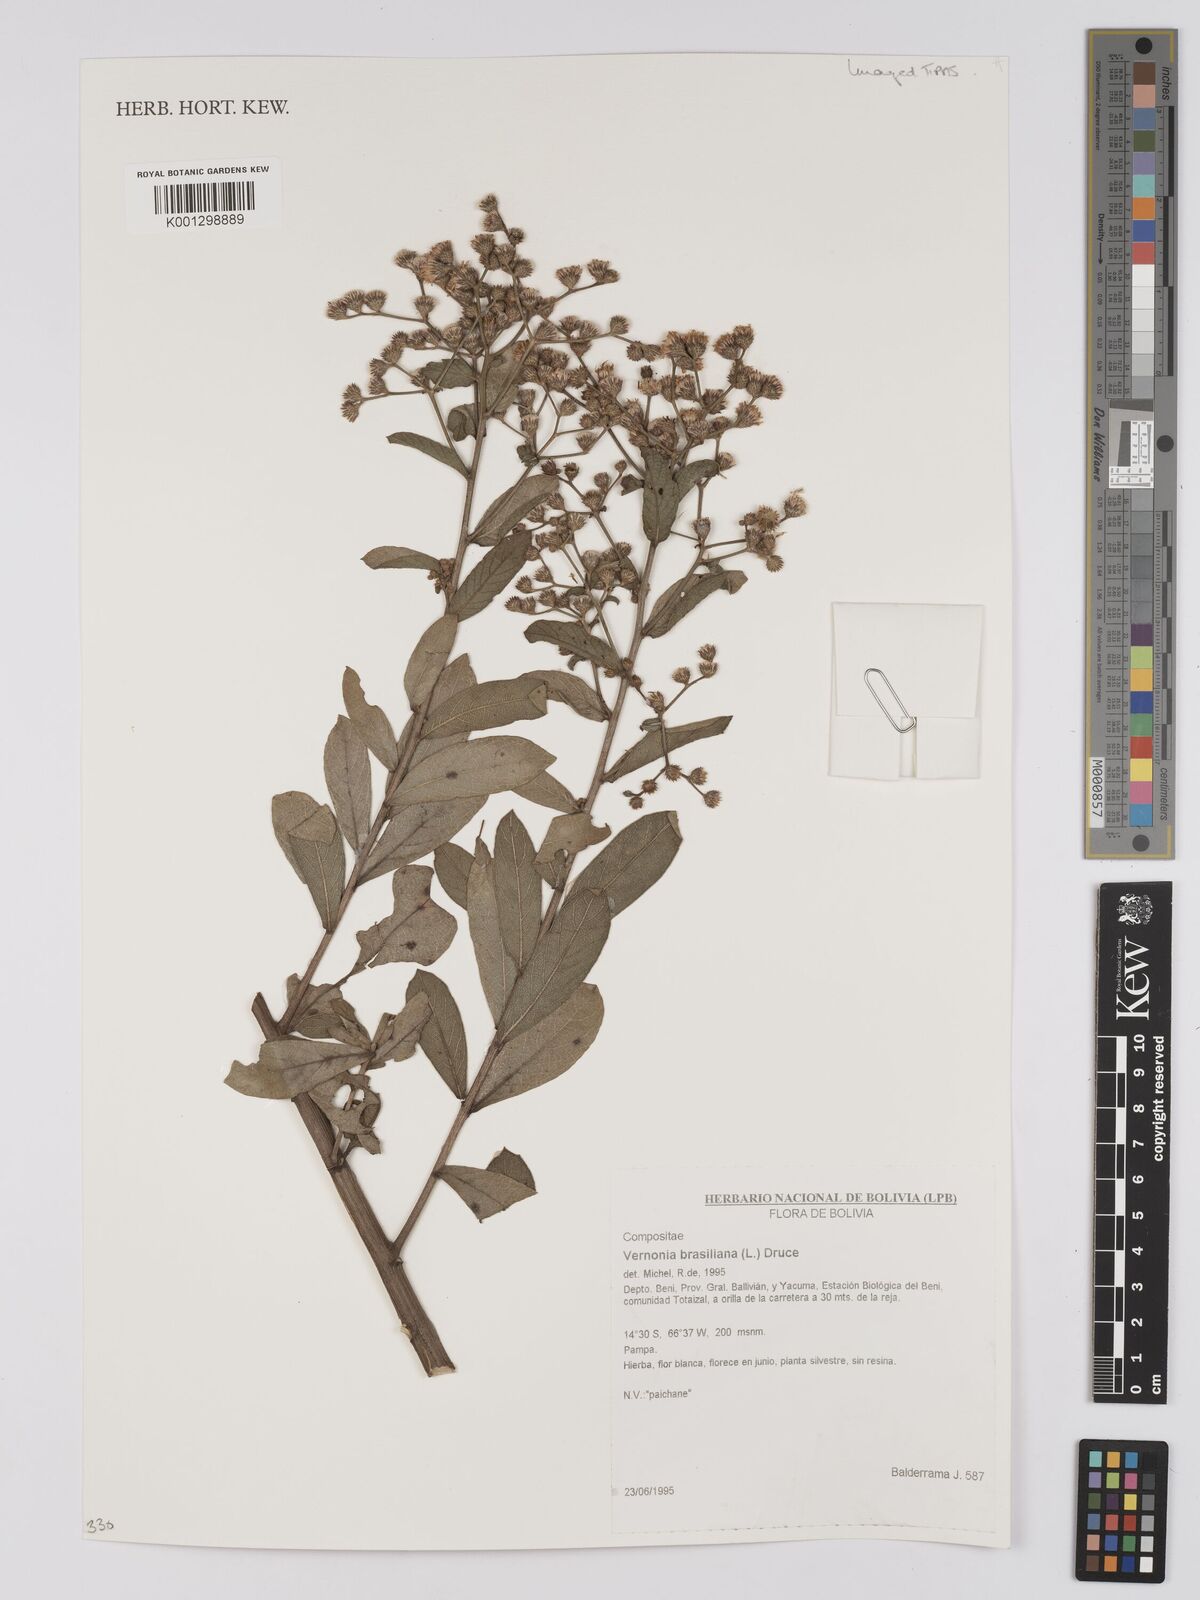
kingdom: Plantae
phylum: Tracheophyta
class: Magnoliopsida
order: Asterales
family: Asteraceae
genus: Vernonanthura
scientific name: Vernonanthura brasiliana
